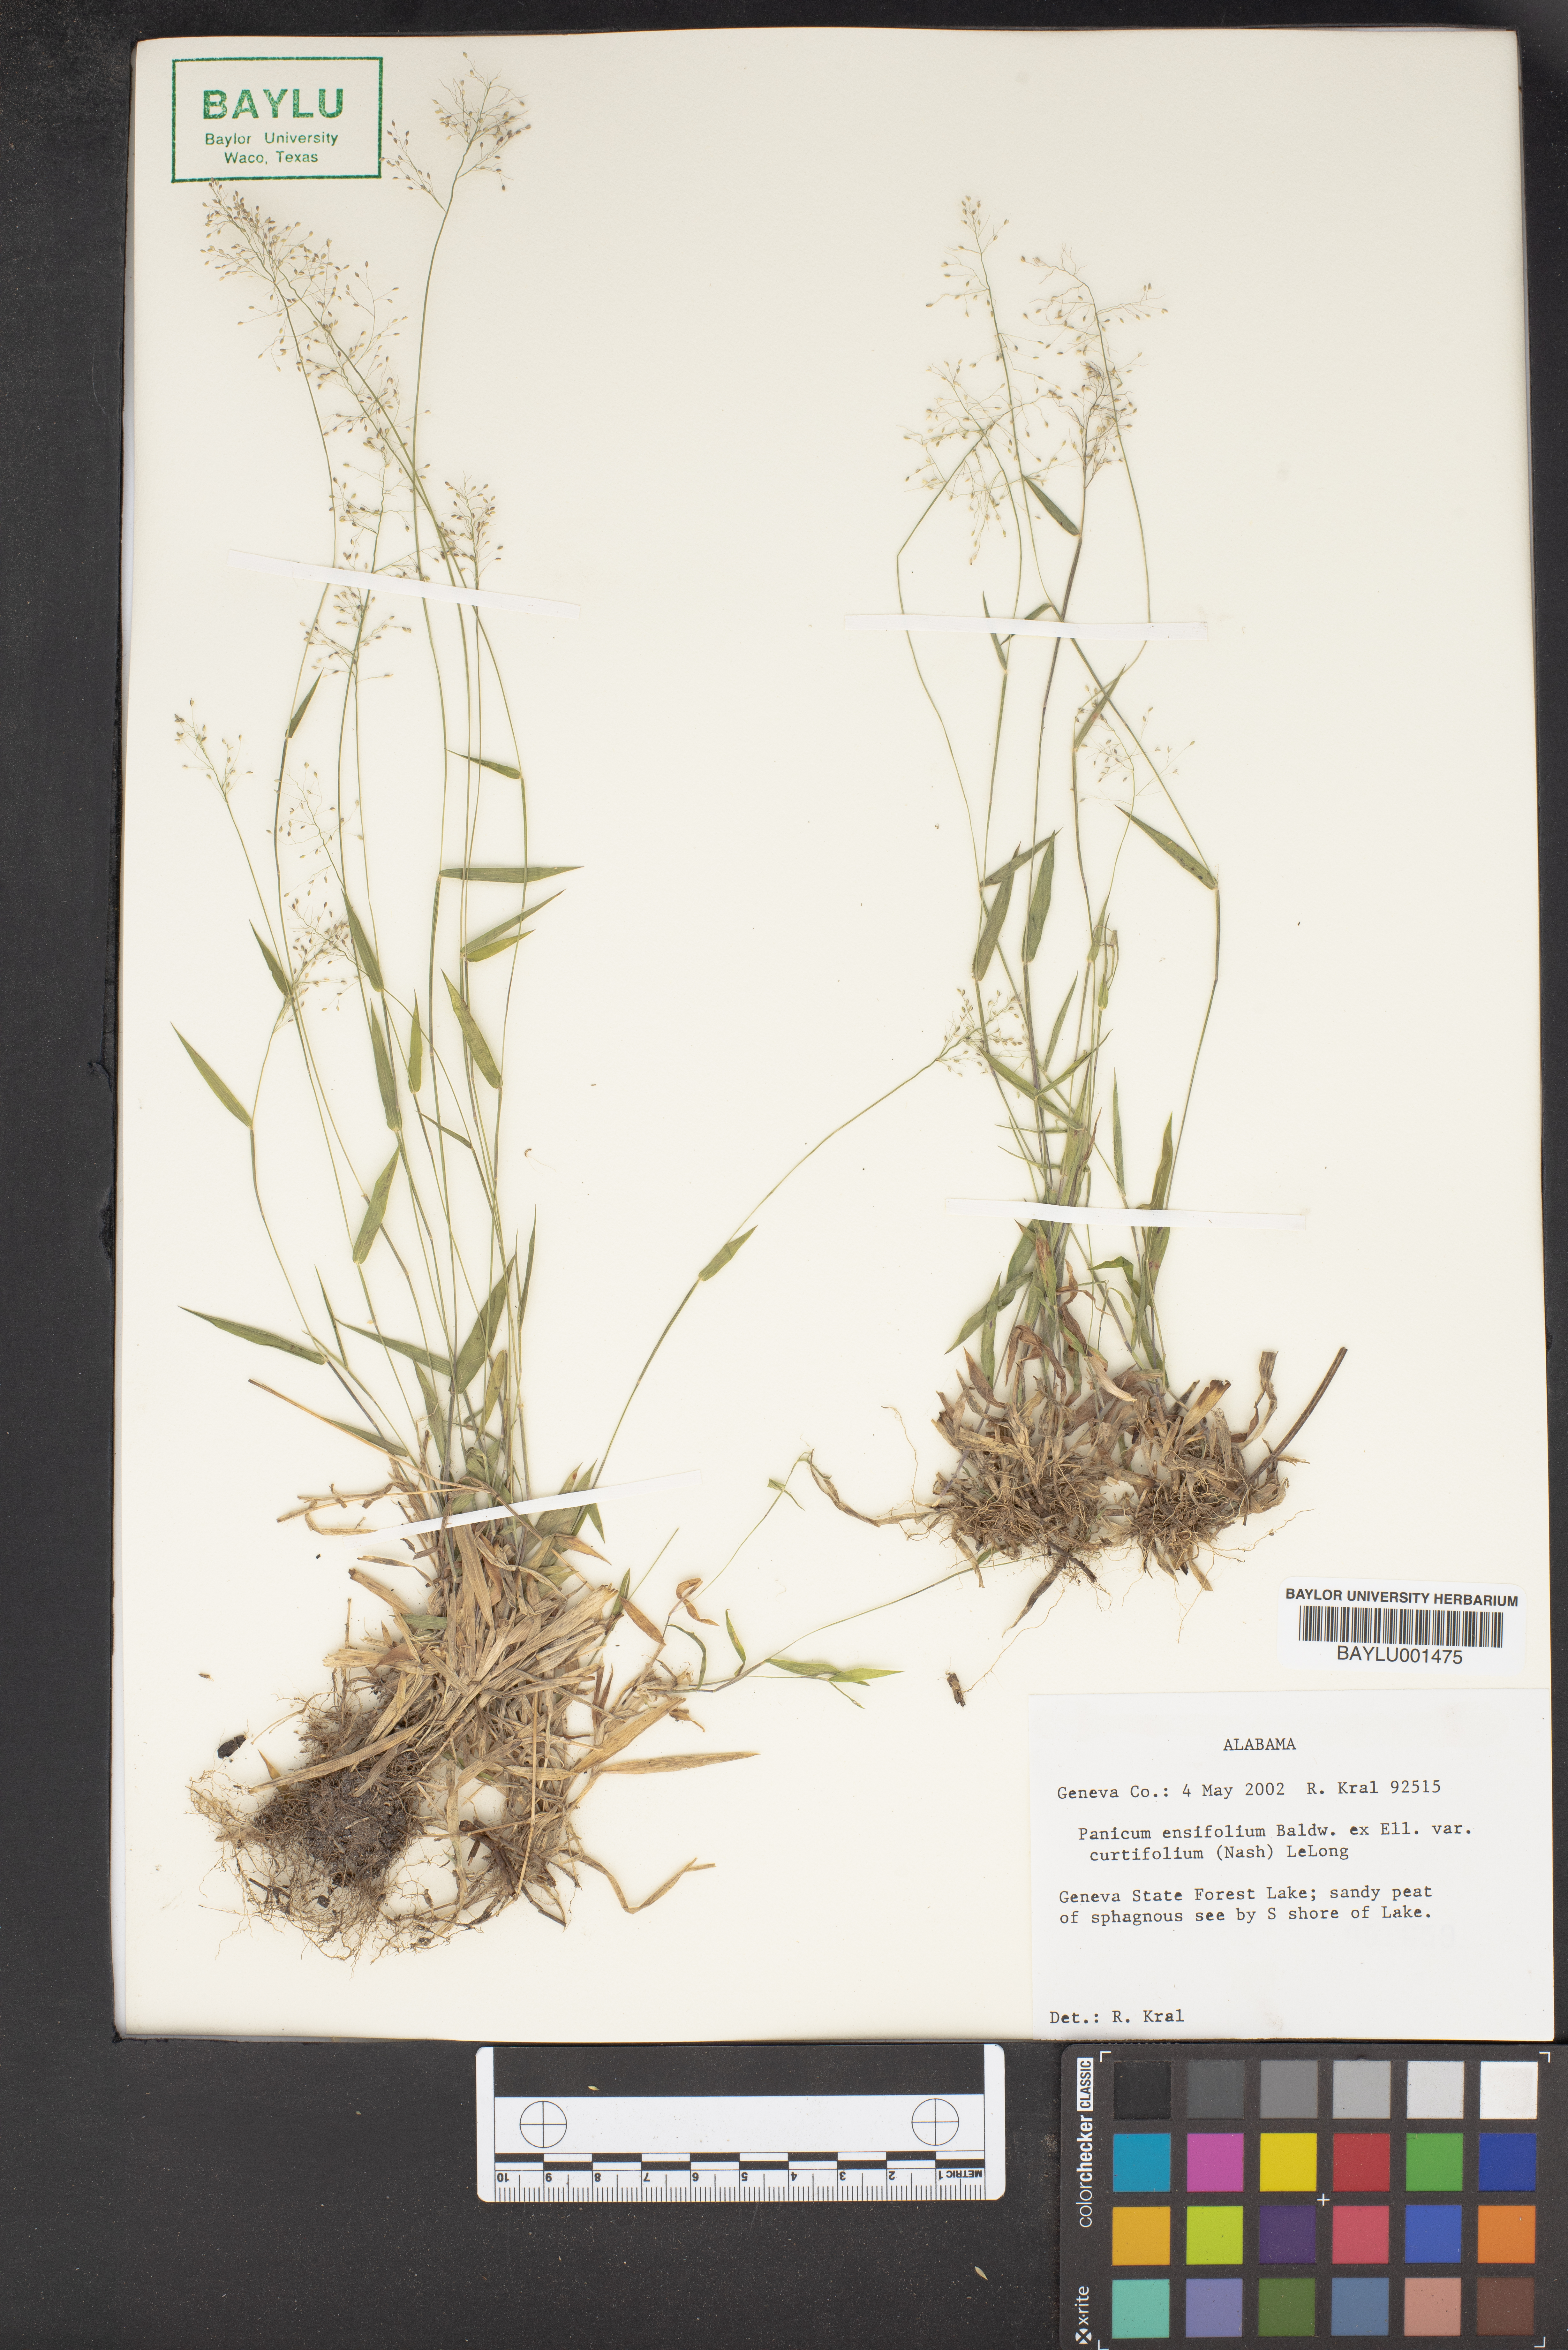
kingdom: Plantae
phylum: Tracheophyta
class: Liliopsida
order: Poales
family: Poaceae
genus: Dichanthelium
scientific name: Dichanthelium ensifolium
